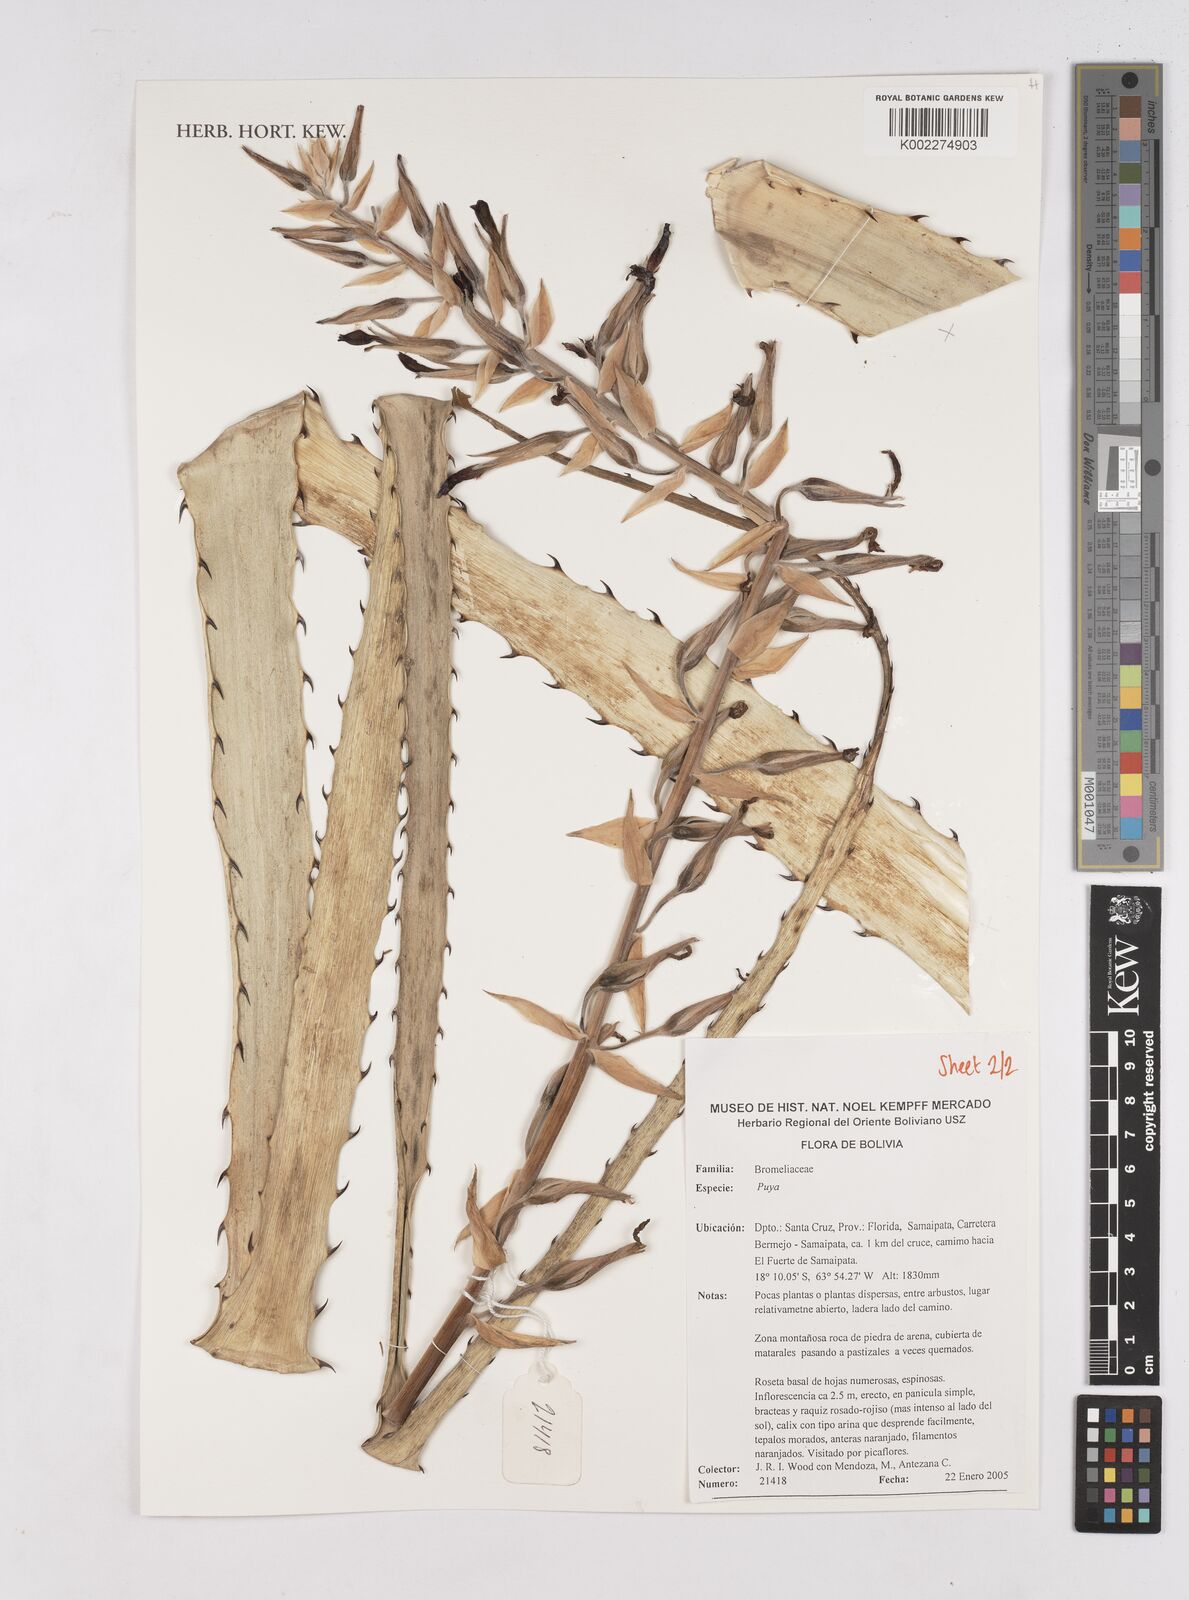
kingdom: Plantae
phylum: Tracheophyta
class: Liliopsida
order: Poales
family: Bromeliaceae
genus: Puya
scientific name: Puya
